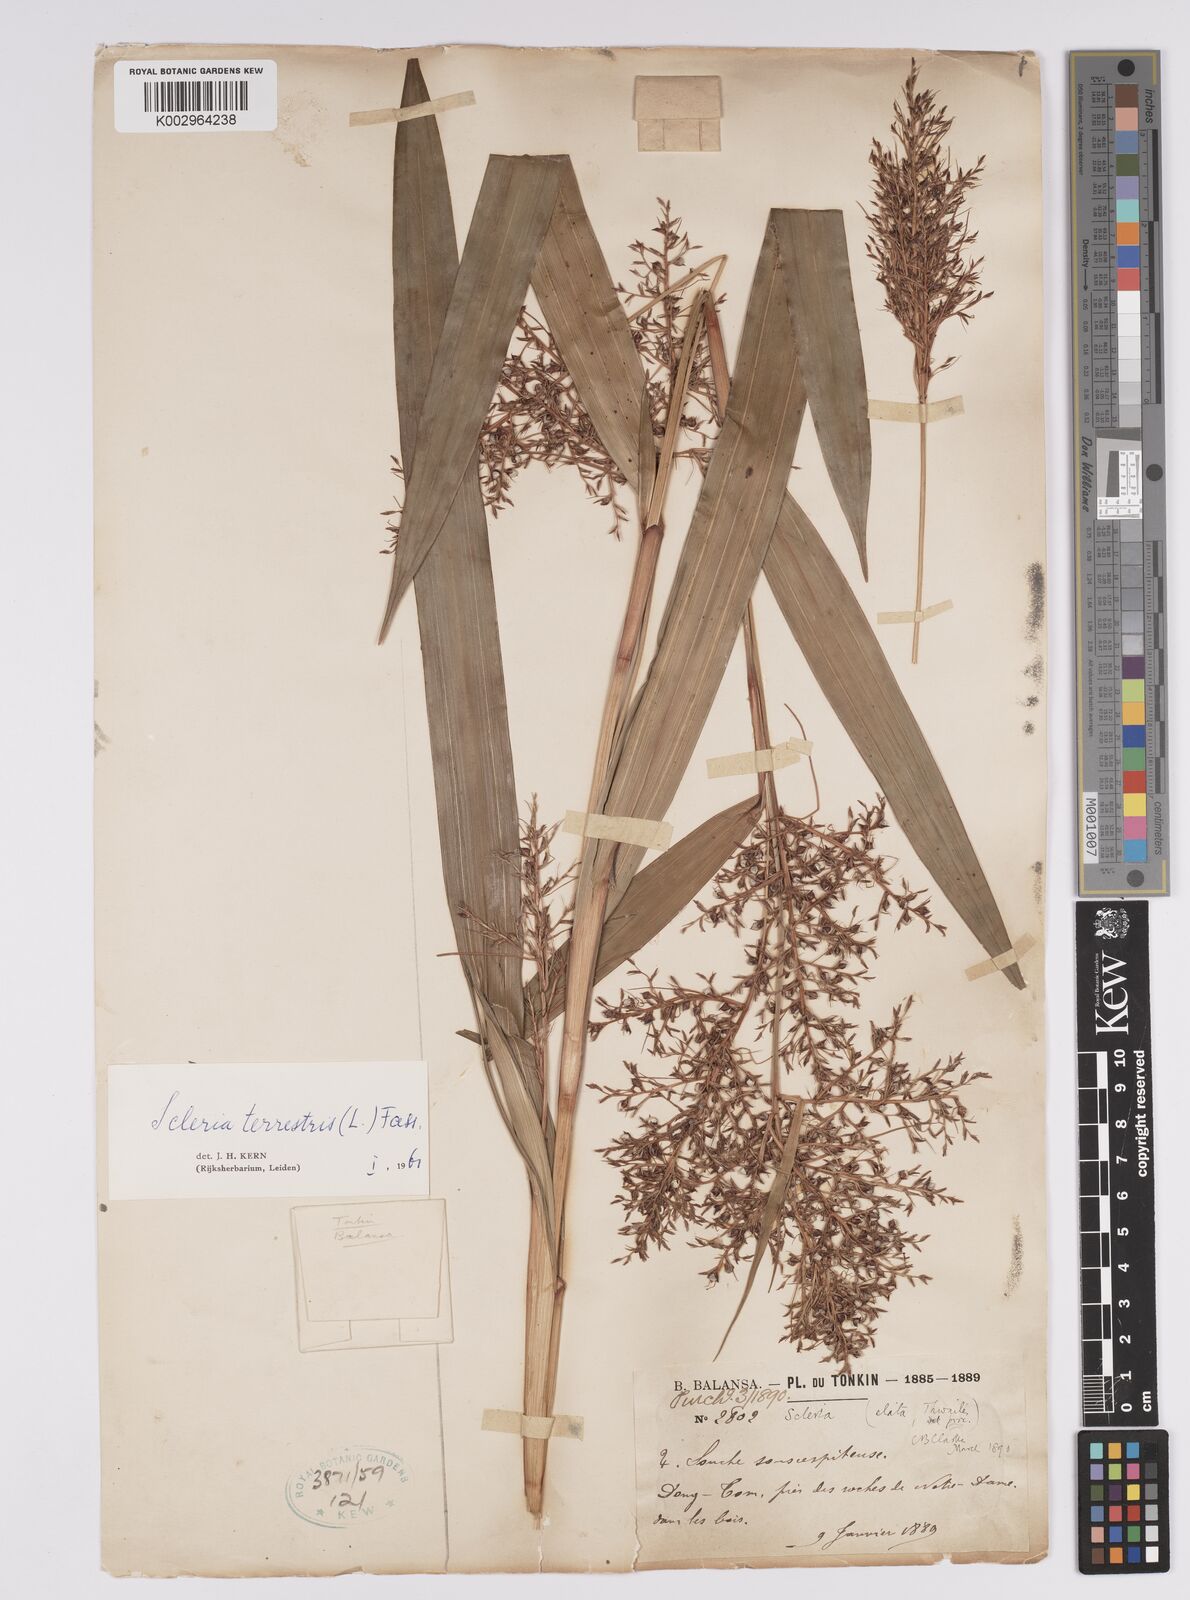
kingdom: Plantae
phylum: Tracheophyta
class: Liliopsida
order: Poales
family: Cyperaceae
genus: Scleria
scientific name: Scleria terrestris
